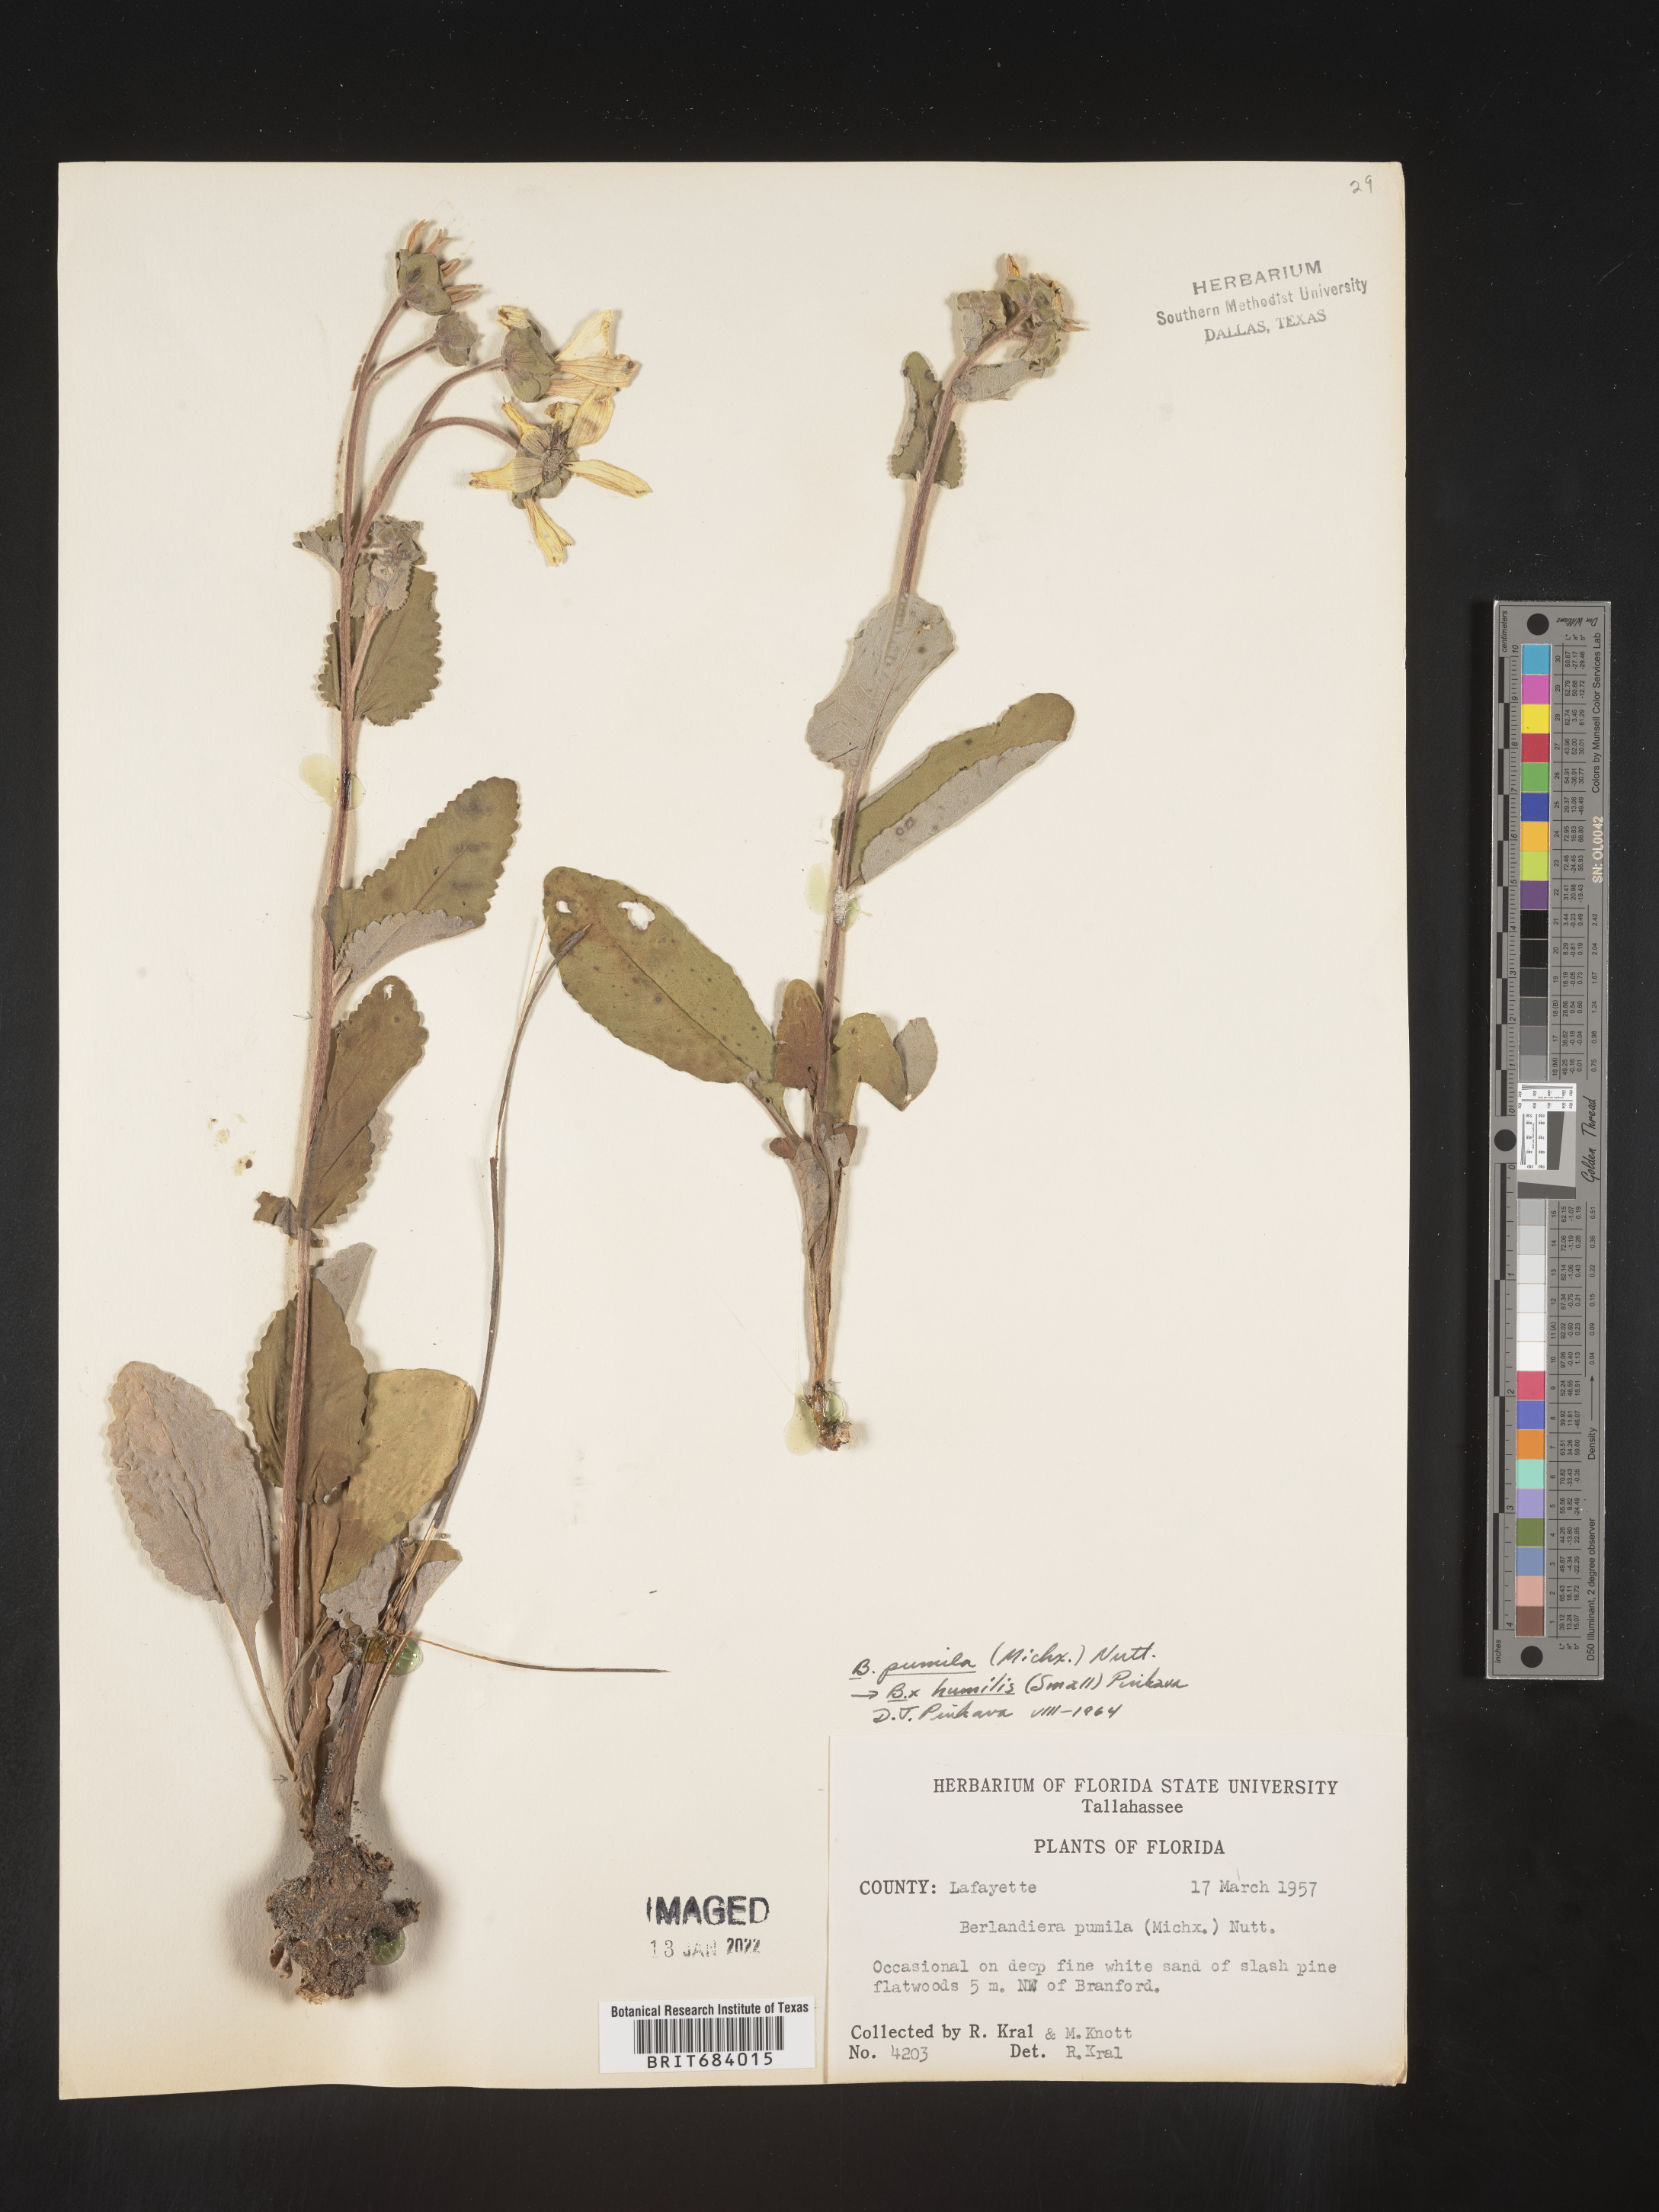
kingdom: Plantae
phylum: Tracheophyta
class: Magnoliopsida
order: Asterales
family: Asteraceae
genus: Berlandiera
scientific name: Berlandiera pumila
